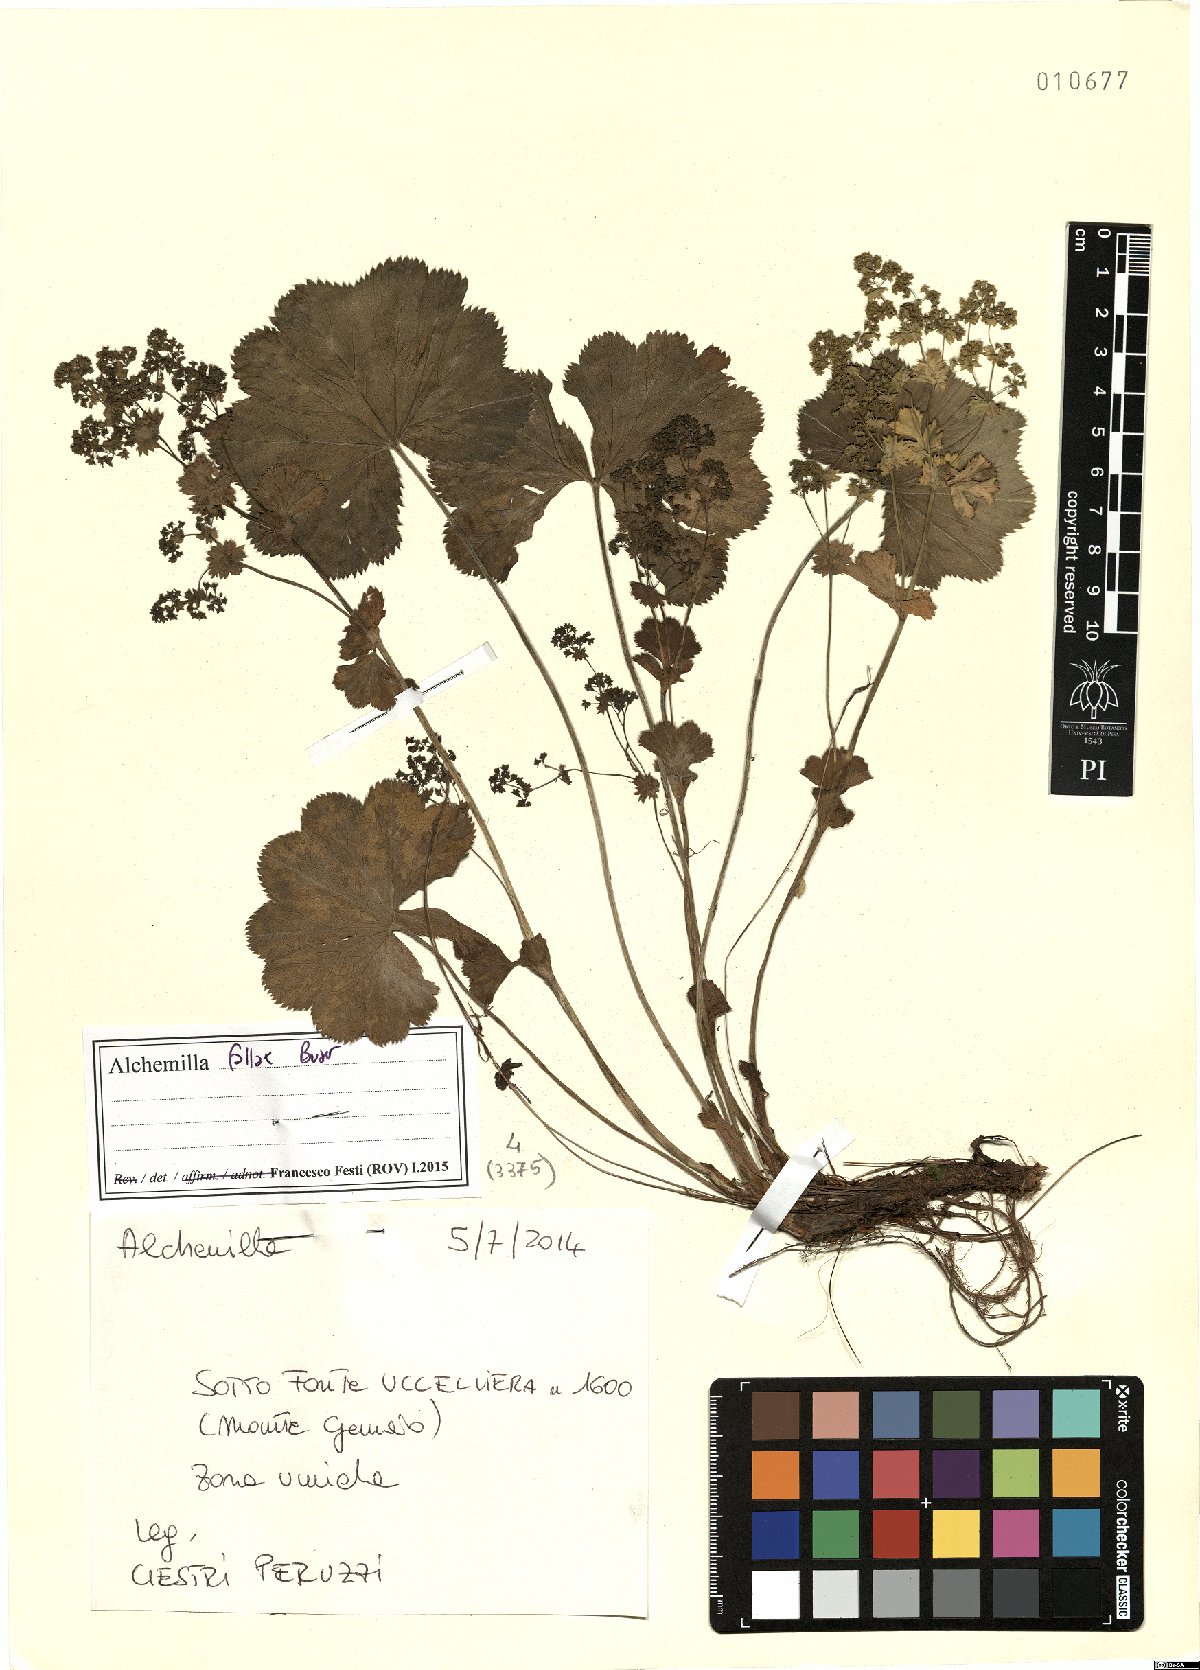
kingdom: Plantae
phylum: Tracheophyta
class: Magnoliopsida
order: Rosales
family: Rosaceae
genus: Alchemilla
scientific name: Alchemilla fallax
